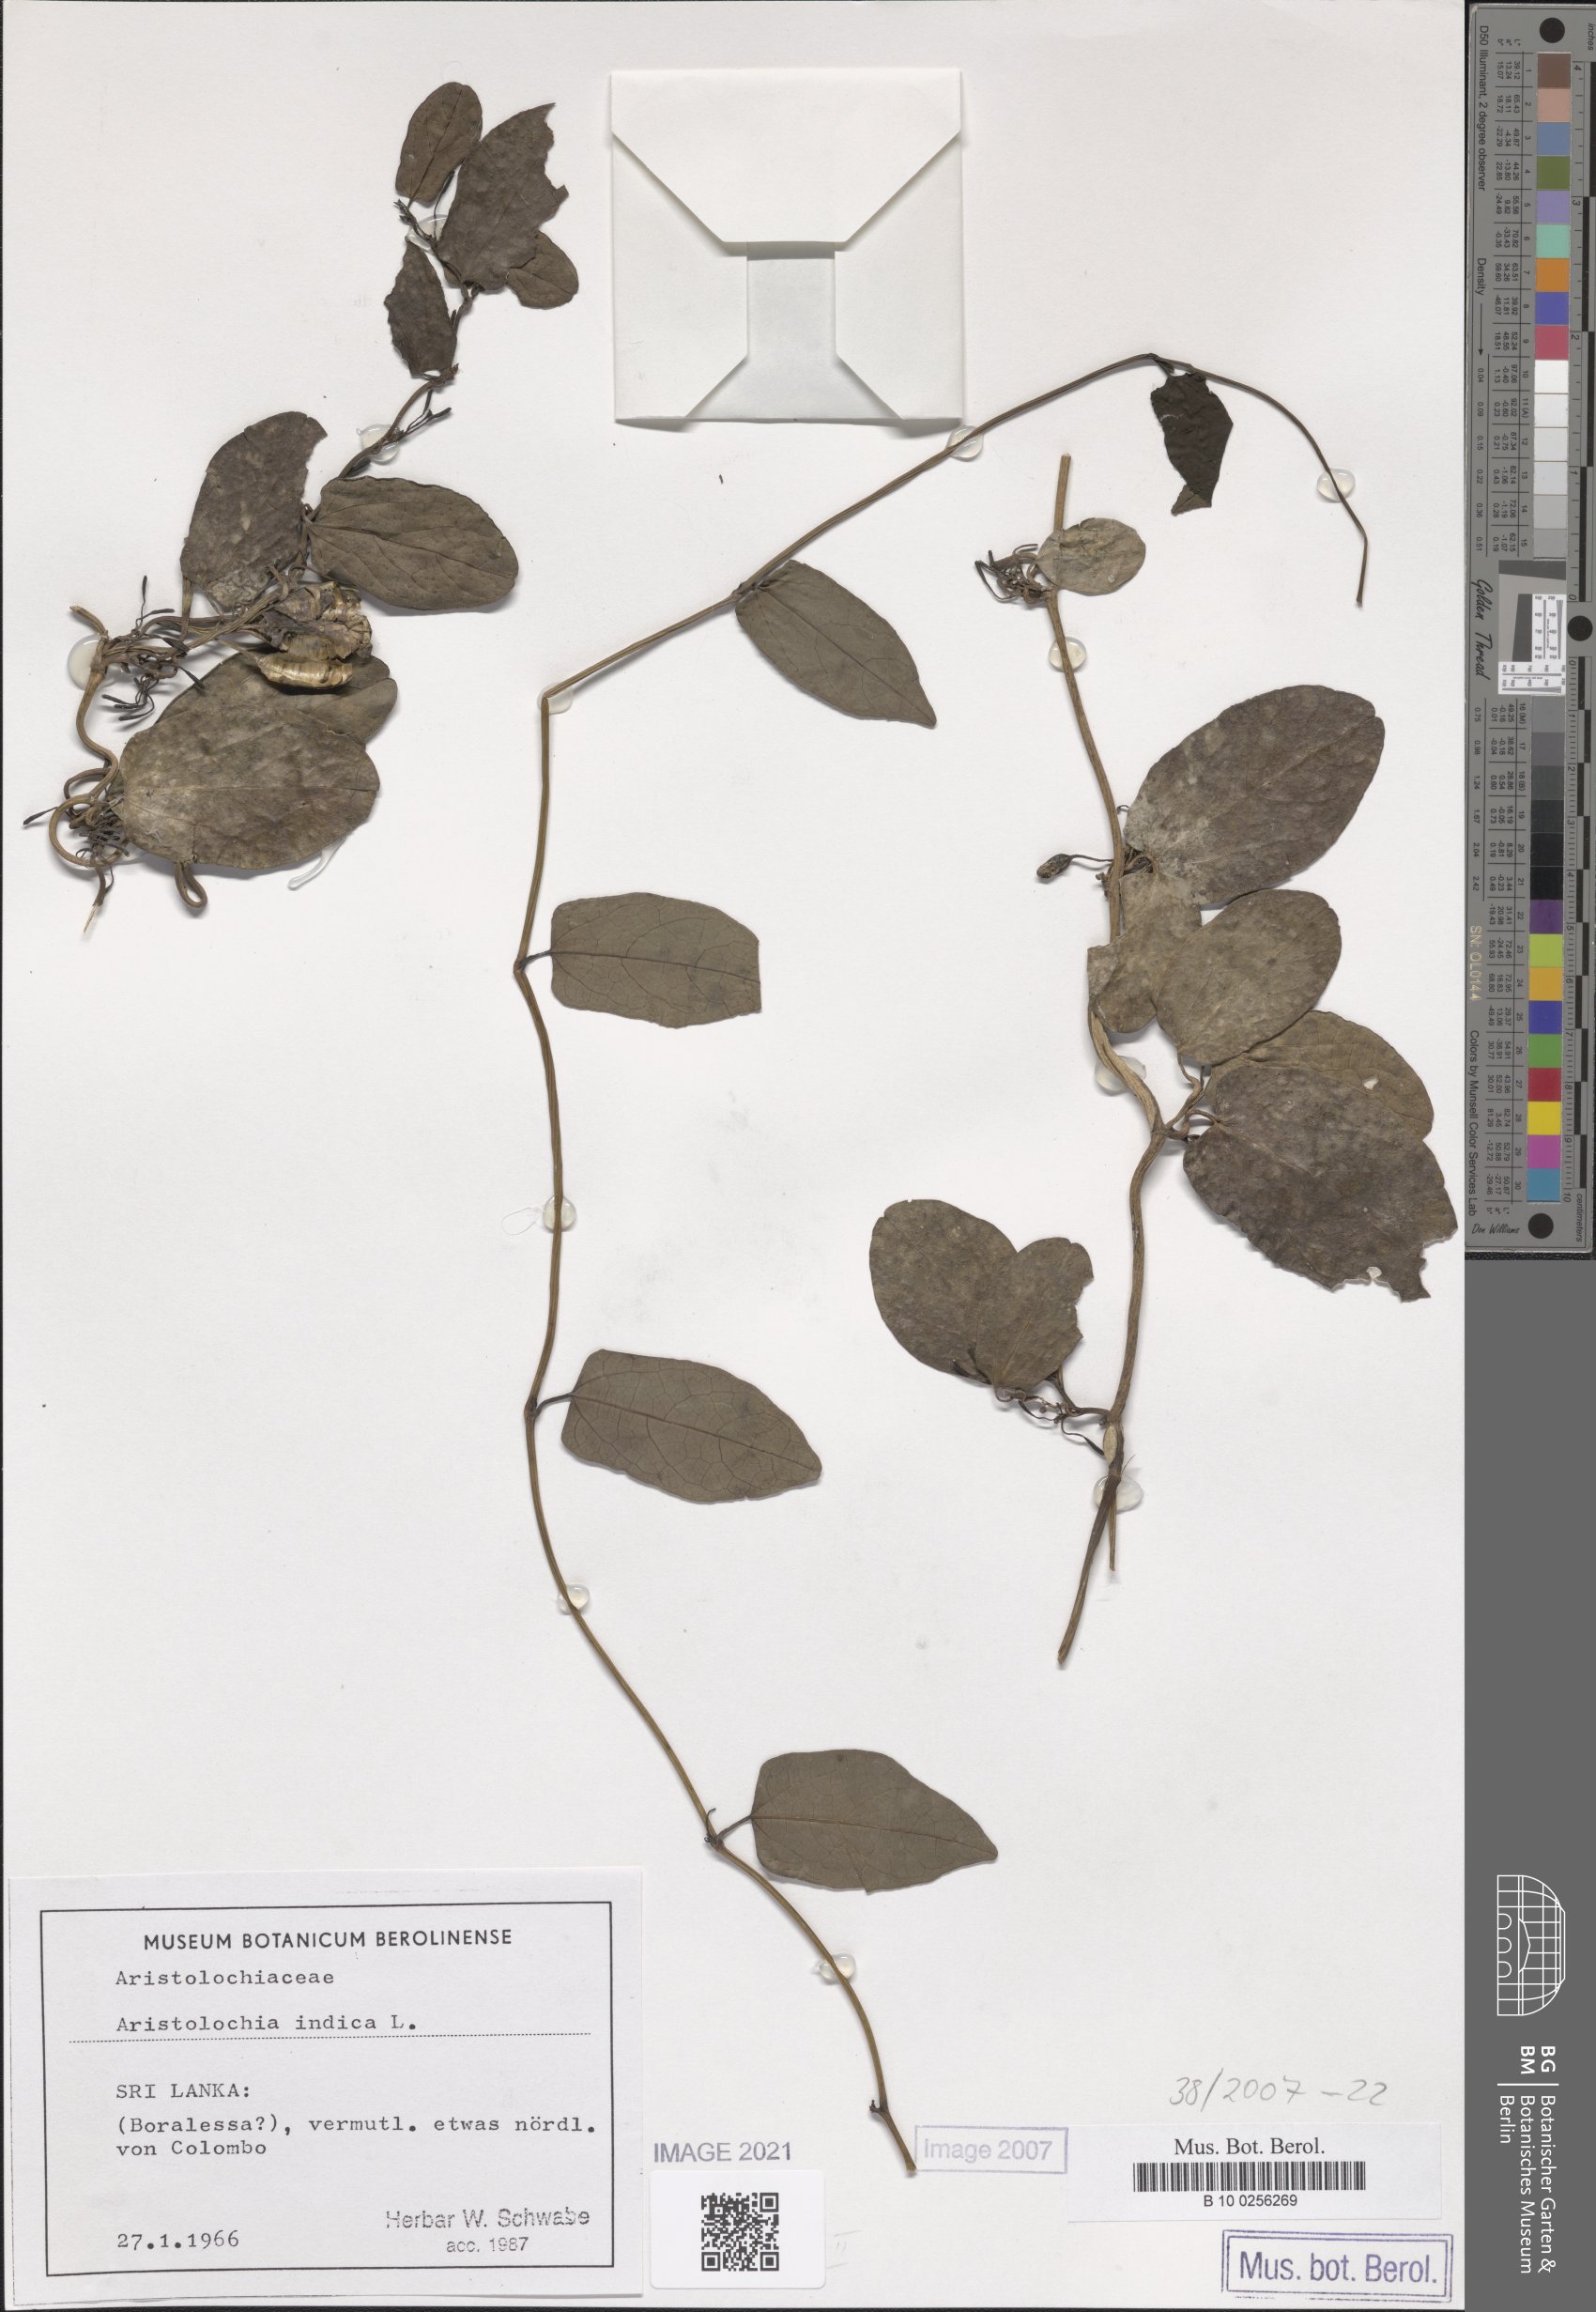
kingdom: Plantae
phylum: Tracheophyta
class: Magnoliopsida
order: Piperales
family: Aristolochiaceae
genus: Aristolochia
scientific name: Aristolochia indica
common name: Indian birthwort
